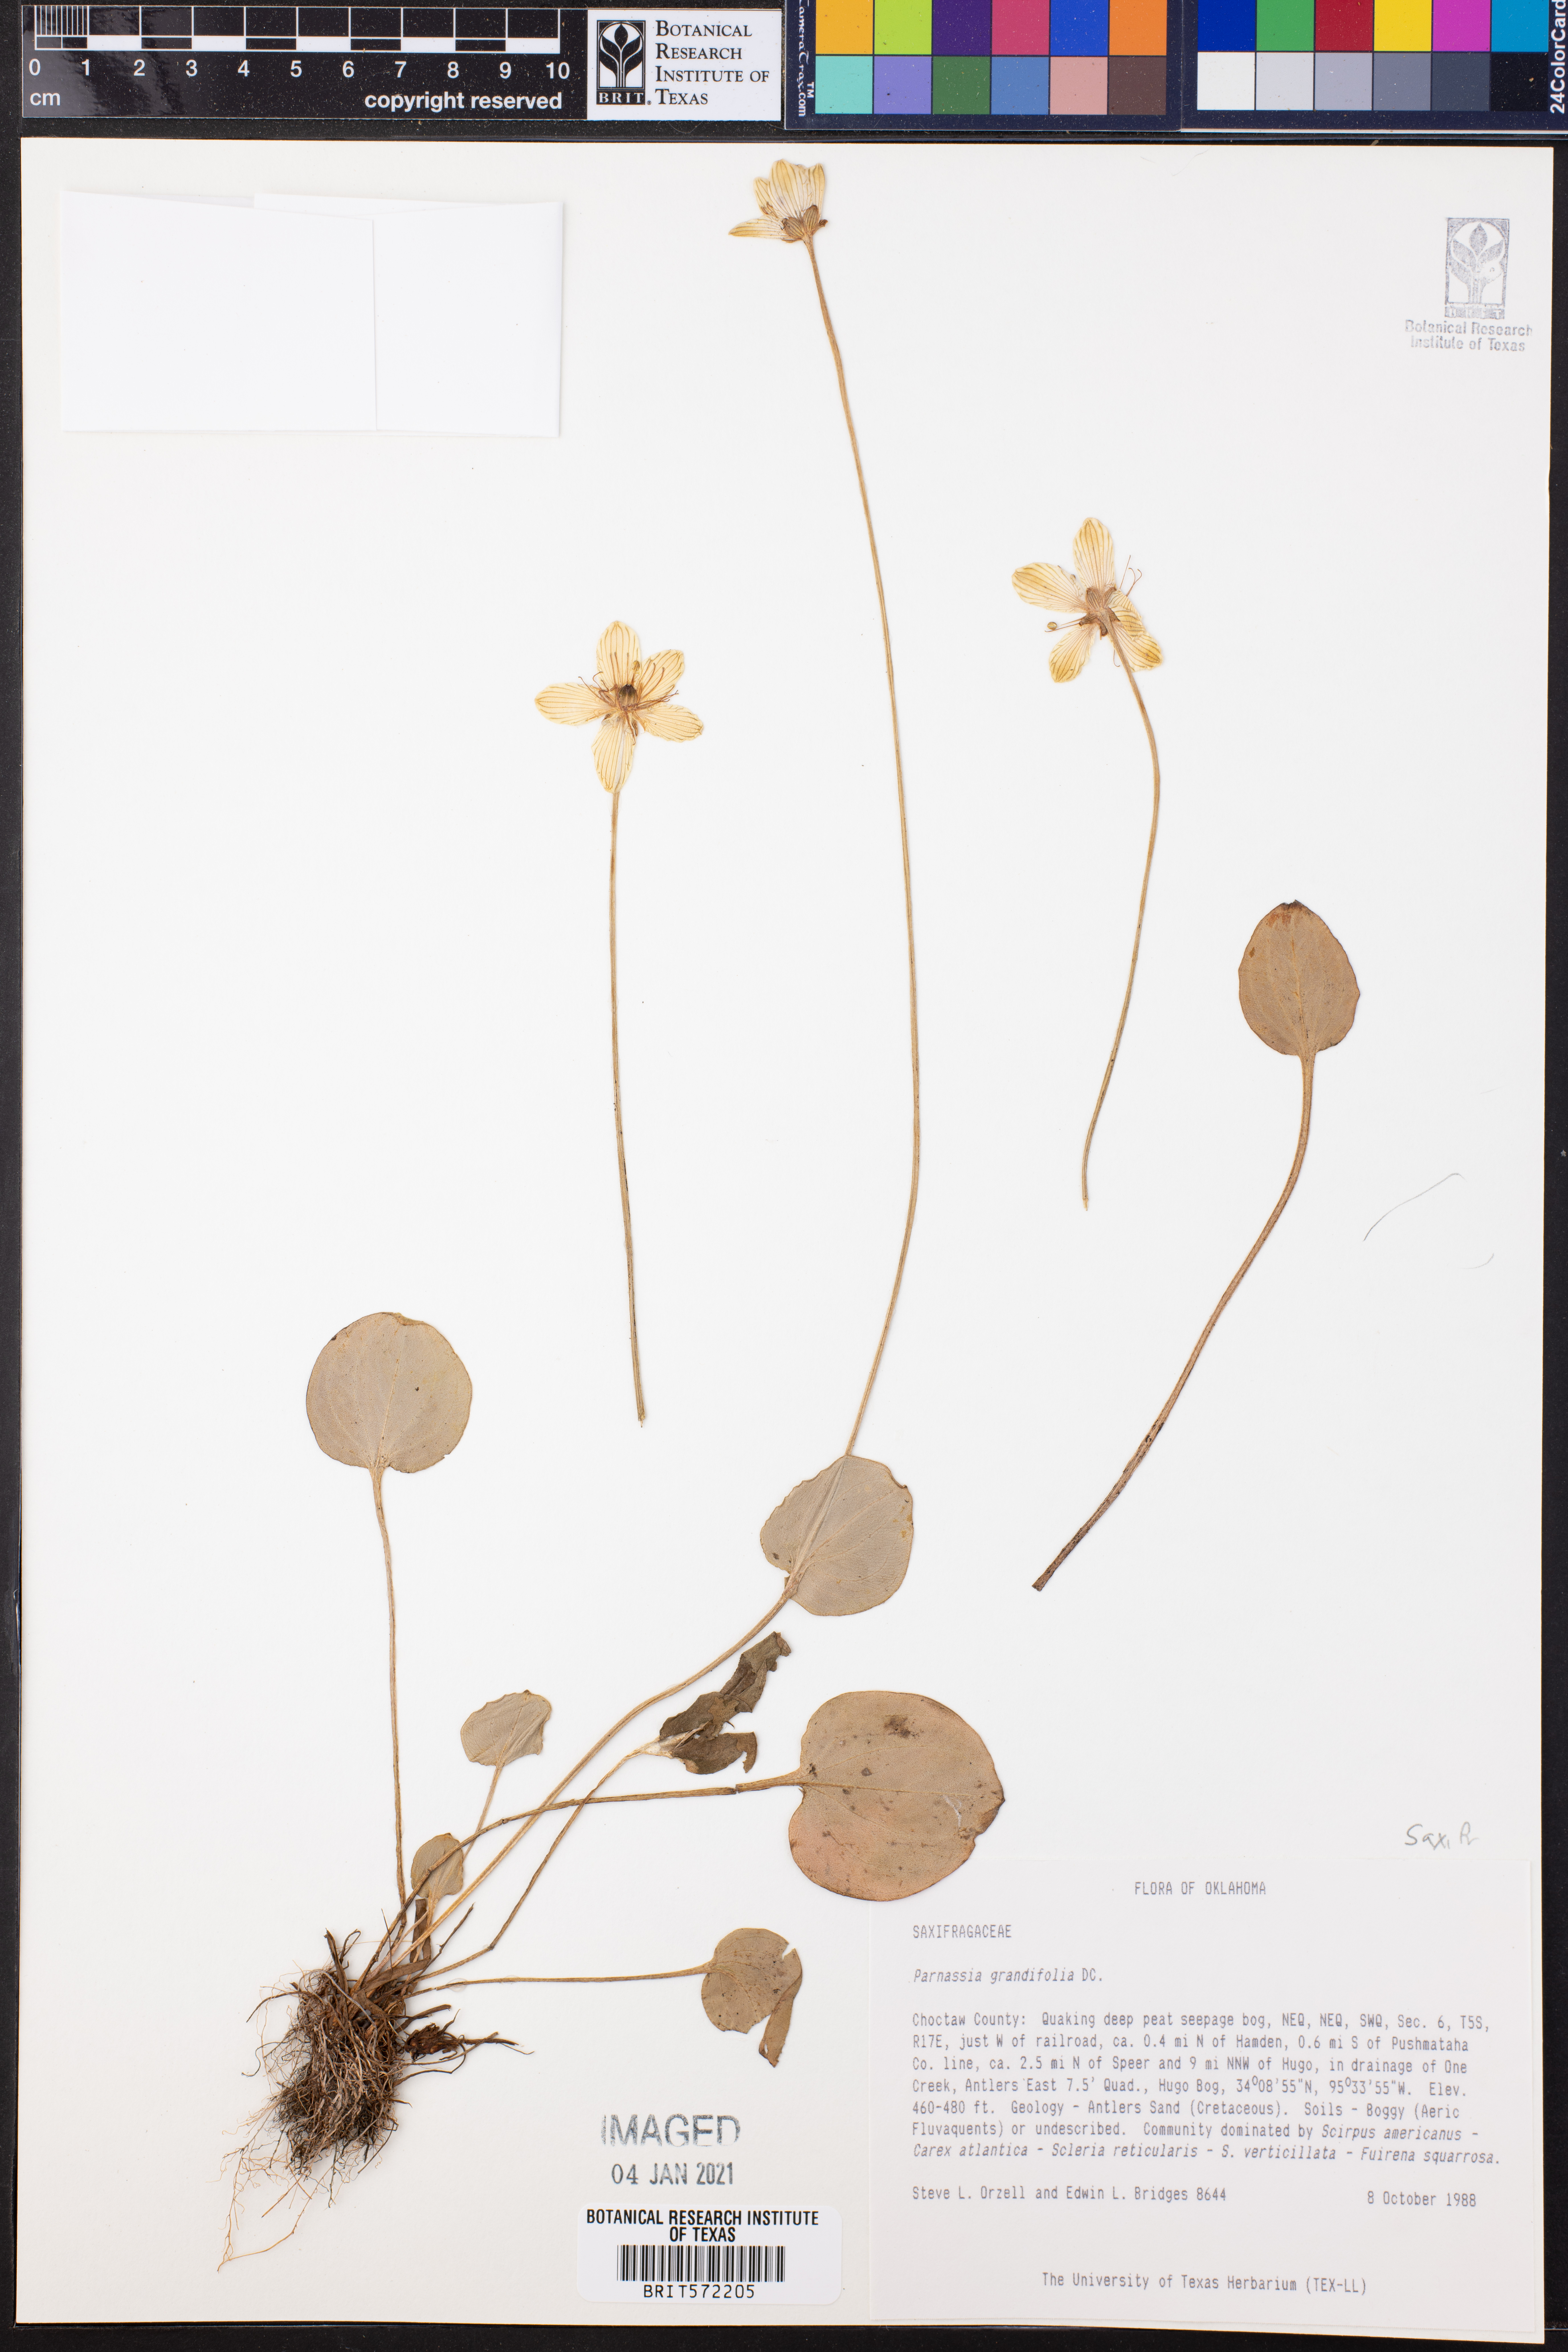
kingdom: Plantae
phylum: Tracheophyta
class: Magnoliopsida
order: Celastrales
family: Parnassiaceae
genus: Parnassia
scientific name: Parnassia grandifolia
